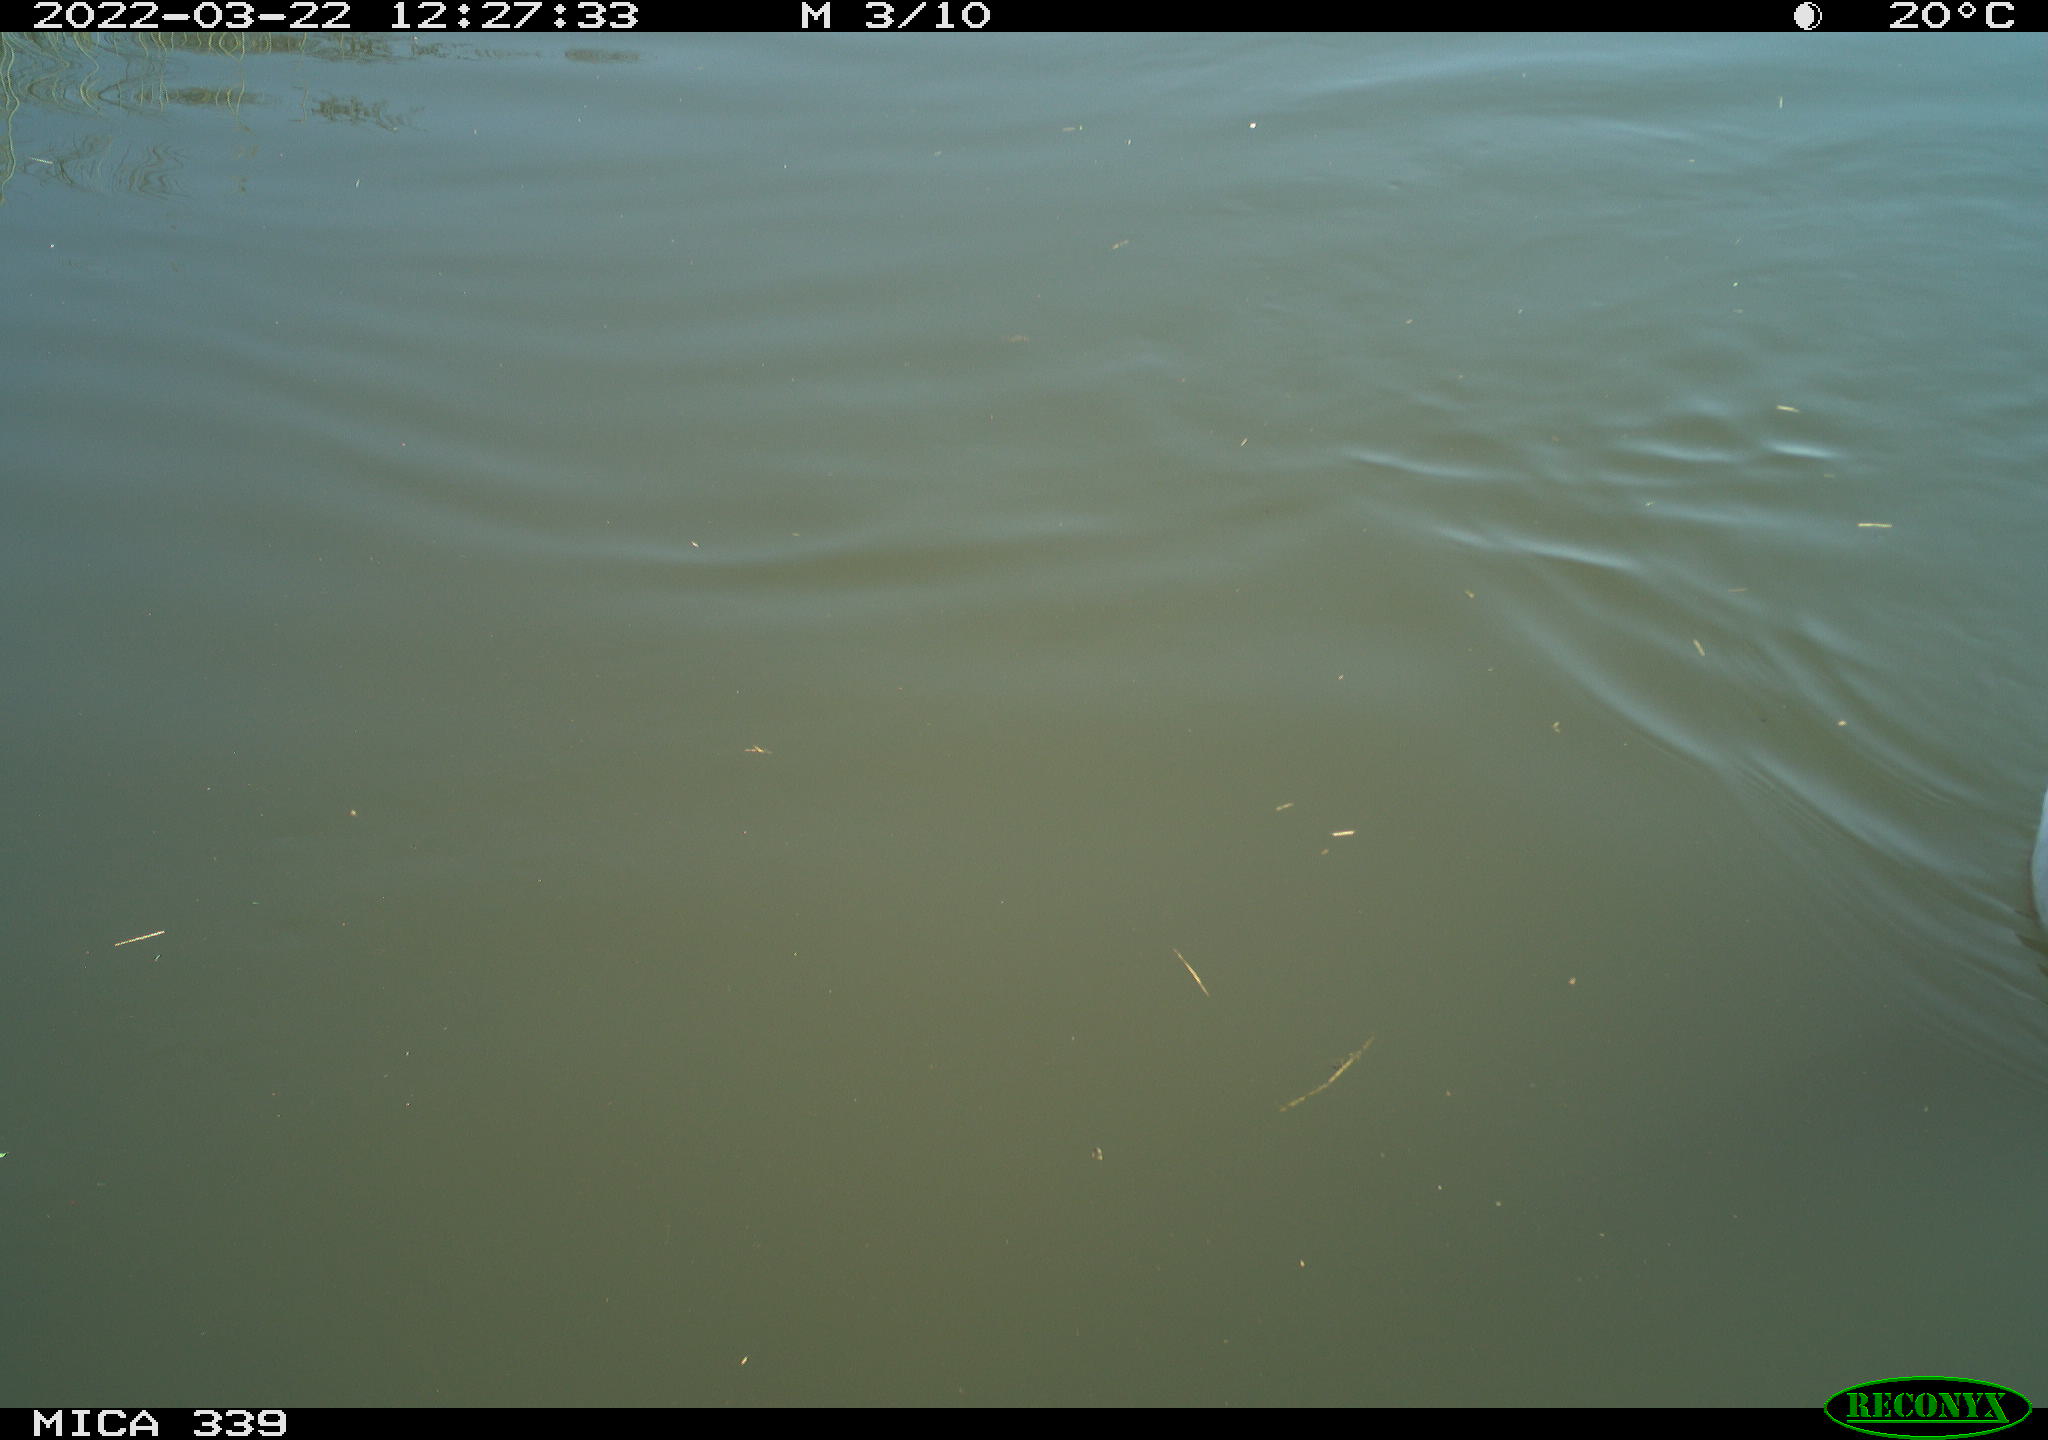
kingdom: Animalia
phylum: Chordata
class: Aves
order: Anseriformes
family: Anatidae
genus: Anas
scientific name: Anas platyrhynchos
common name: Mallard
